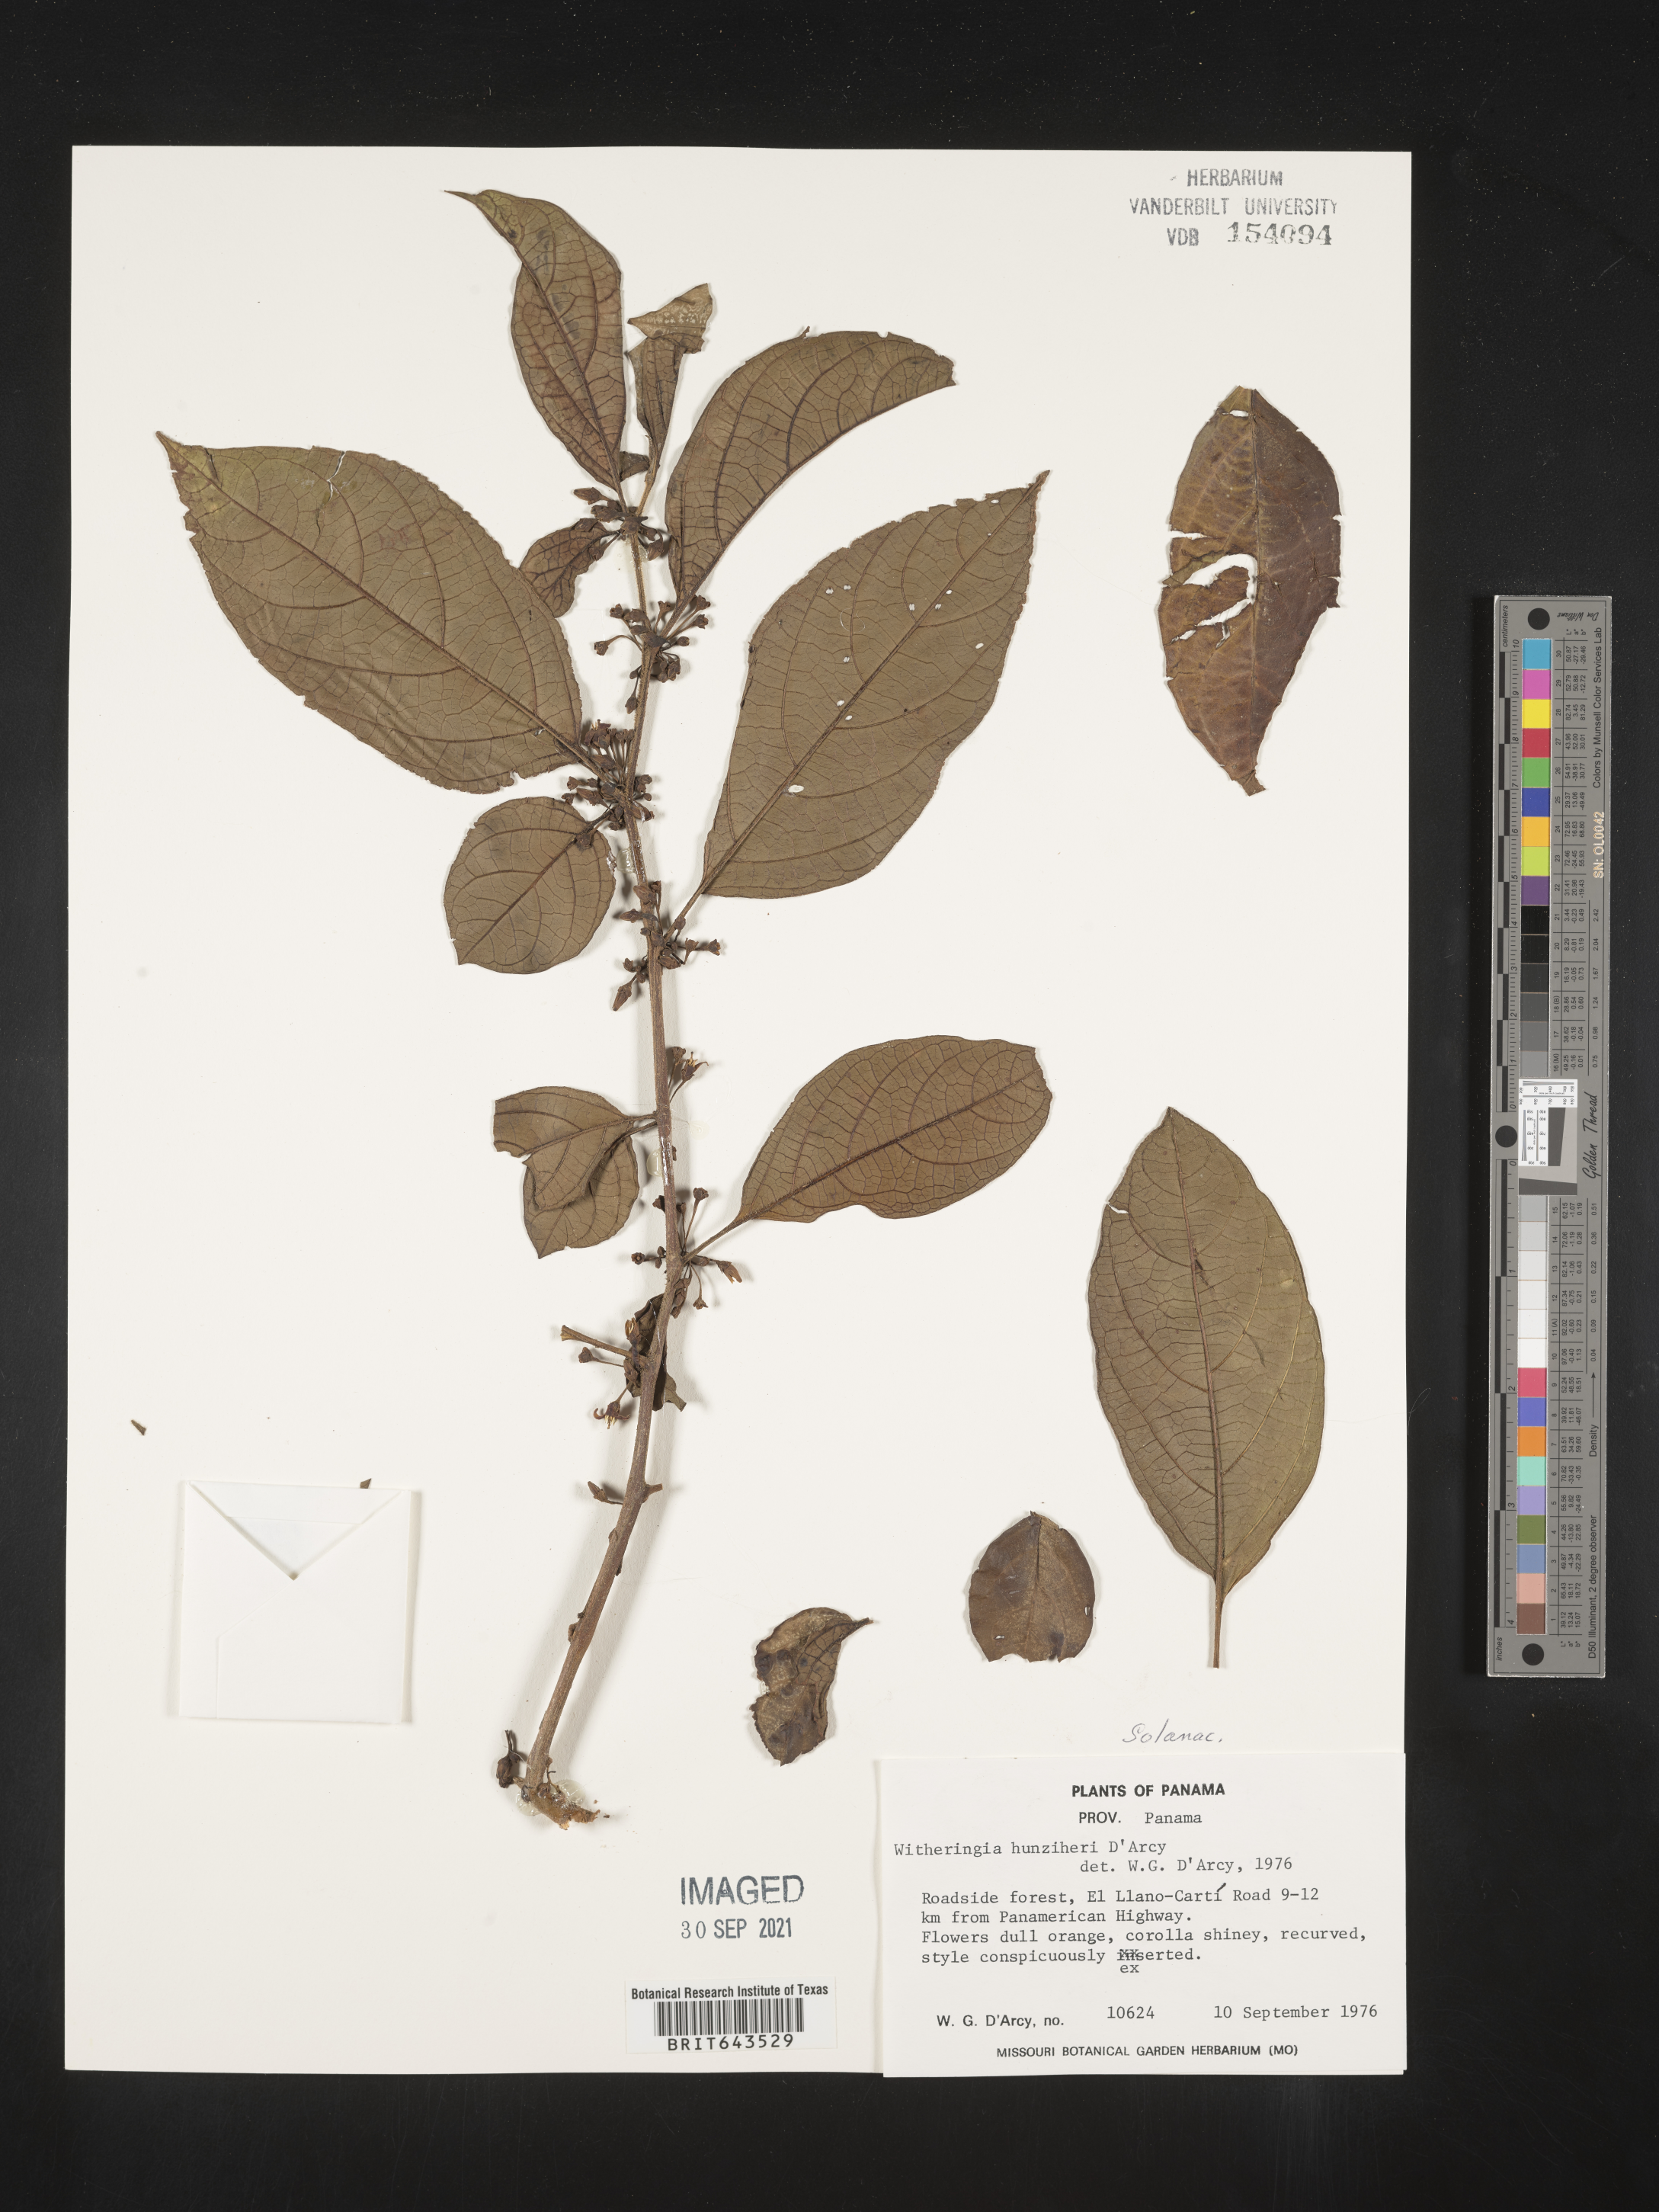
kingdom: Plantae
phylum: Tracheophyta
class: Magnoliopsida
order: Solanales
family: Solanaceae
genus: Witheringia
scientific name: Witheringia
